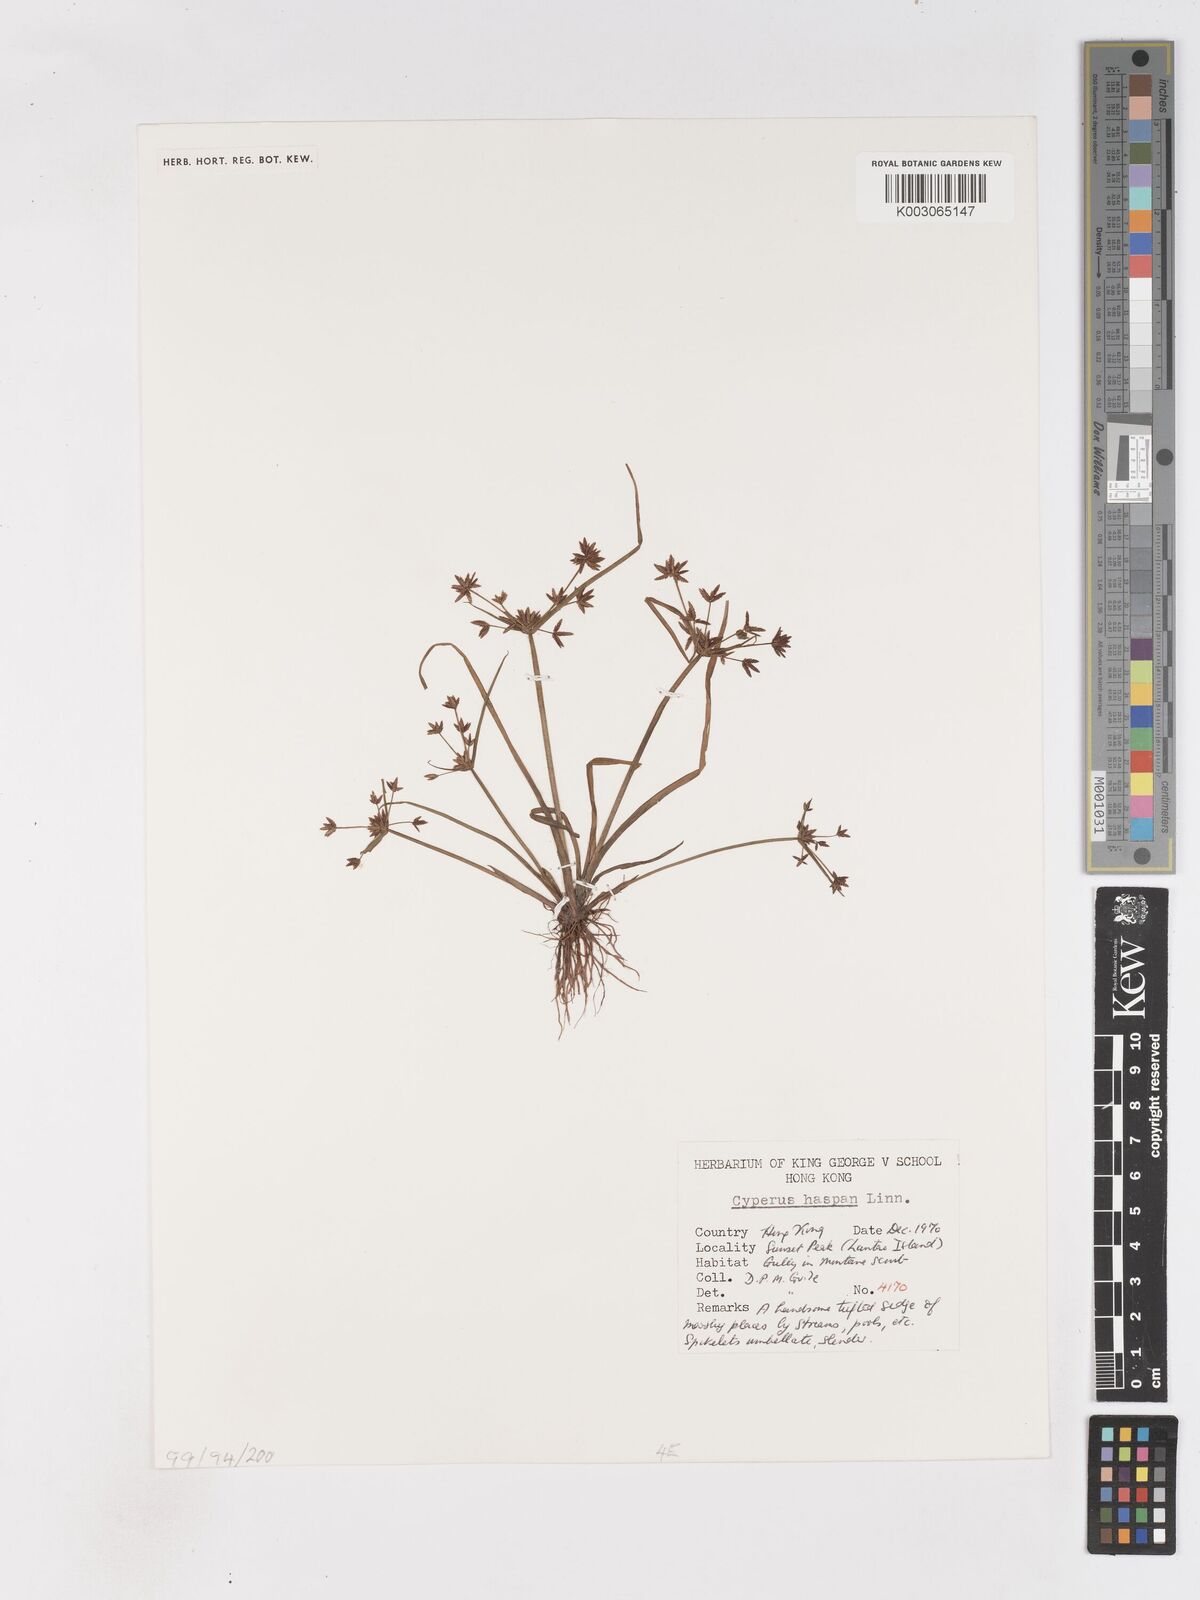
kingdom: Plantae
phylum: Tracheophyta
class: Liliopsida
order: Poales
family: Cyperaceae
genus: Cyperus
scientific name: Cyperus haspan
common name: Haspan flatsedge
